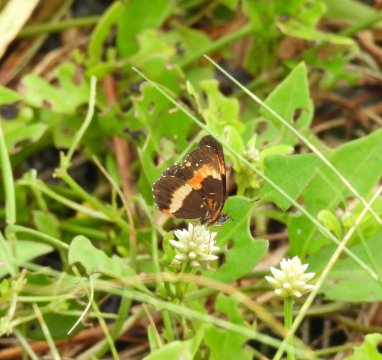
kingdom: Animalia
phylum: Arthropoda
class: Insecta
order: Lepidoptera
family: Nymphalidae
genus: Chlosyne
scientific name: Chlosyne lacinia
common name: Bordered Patch
